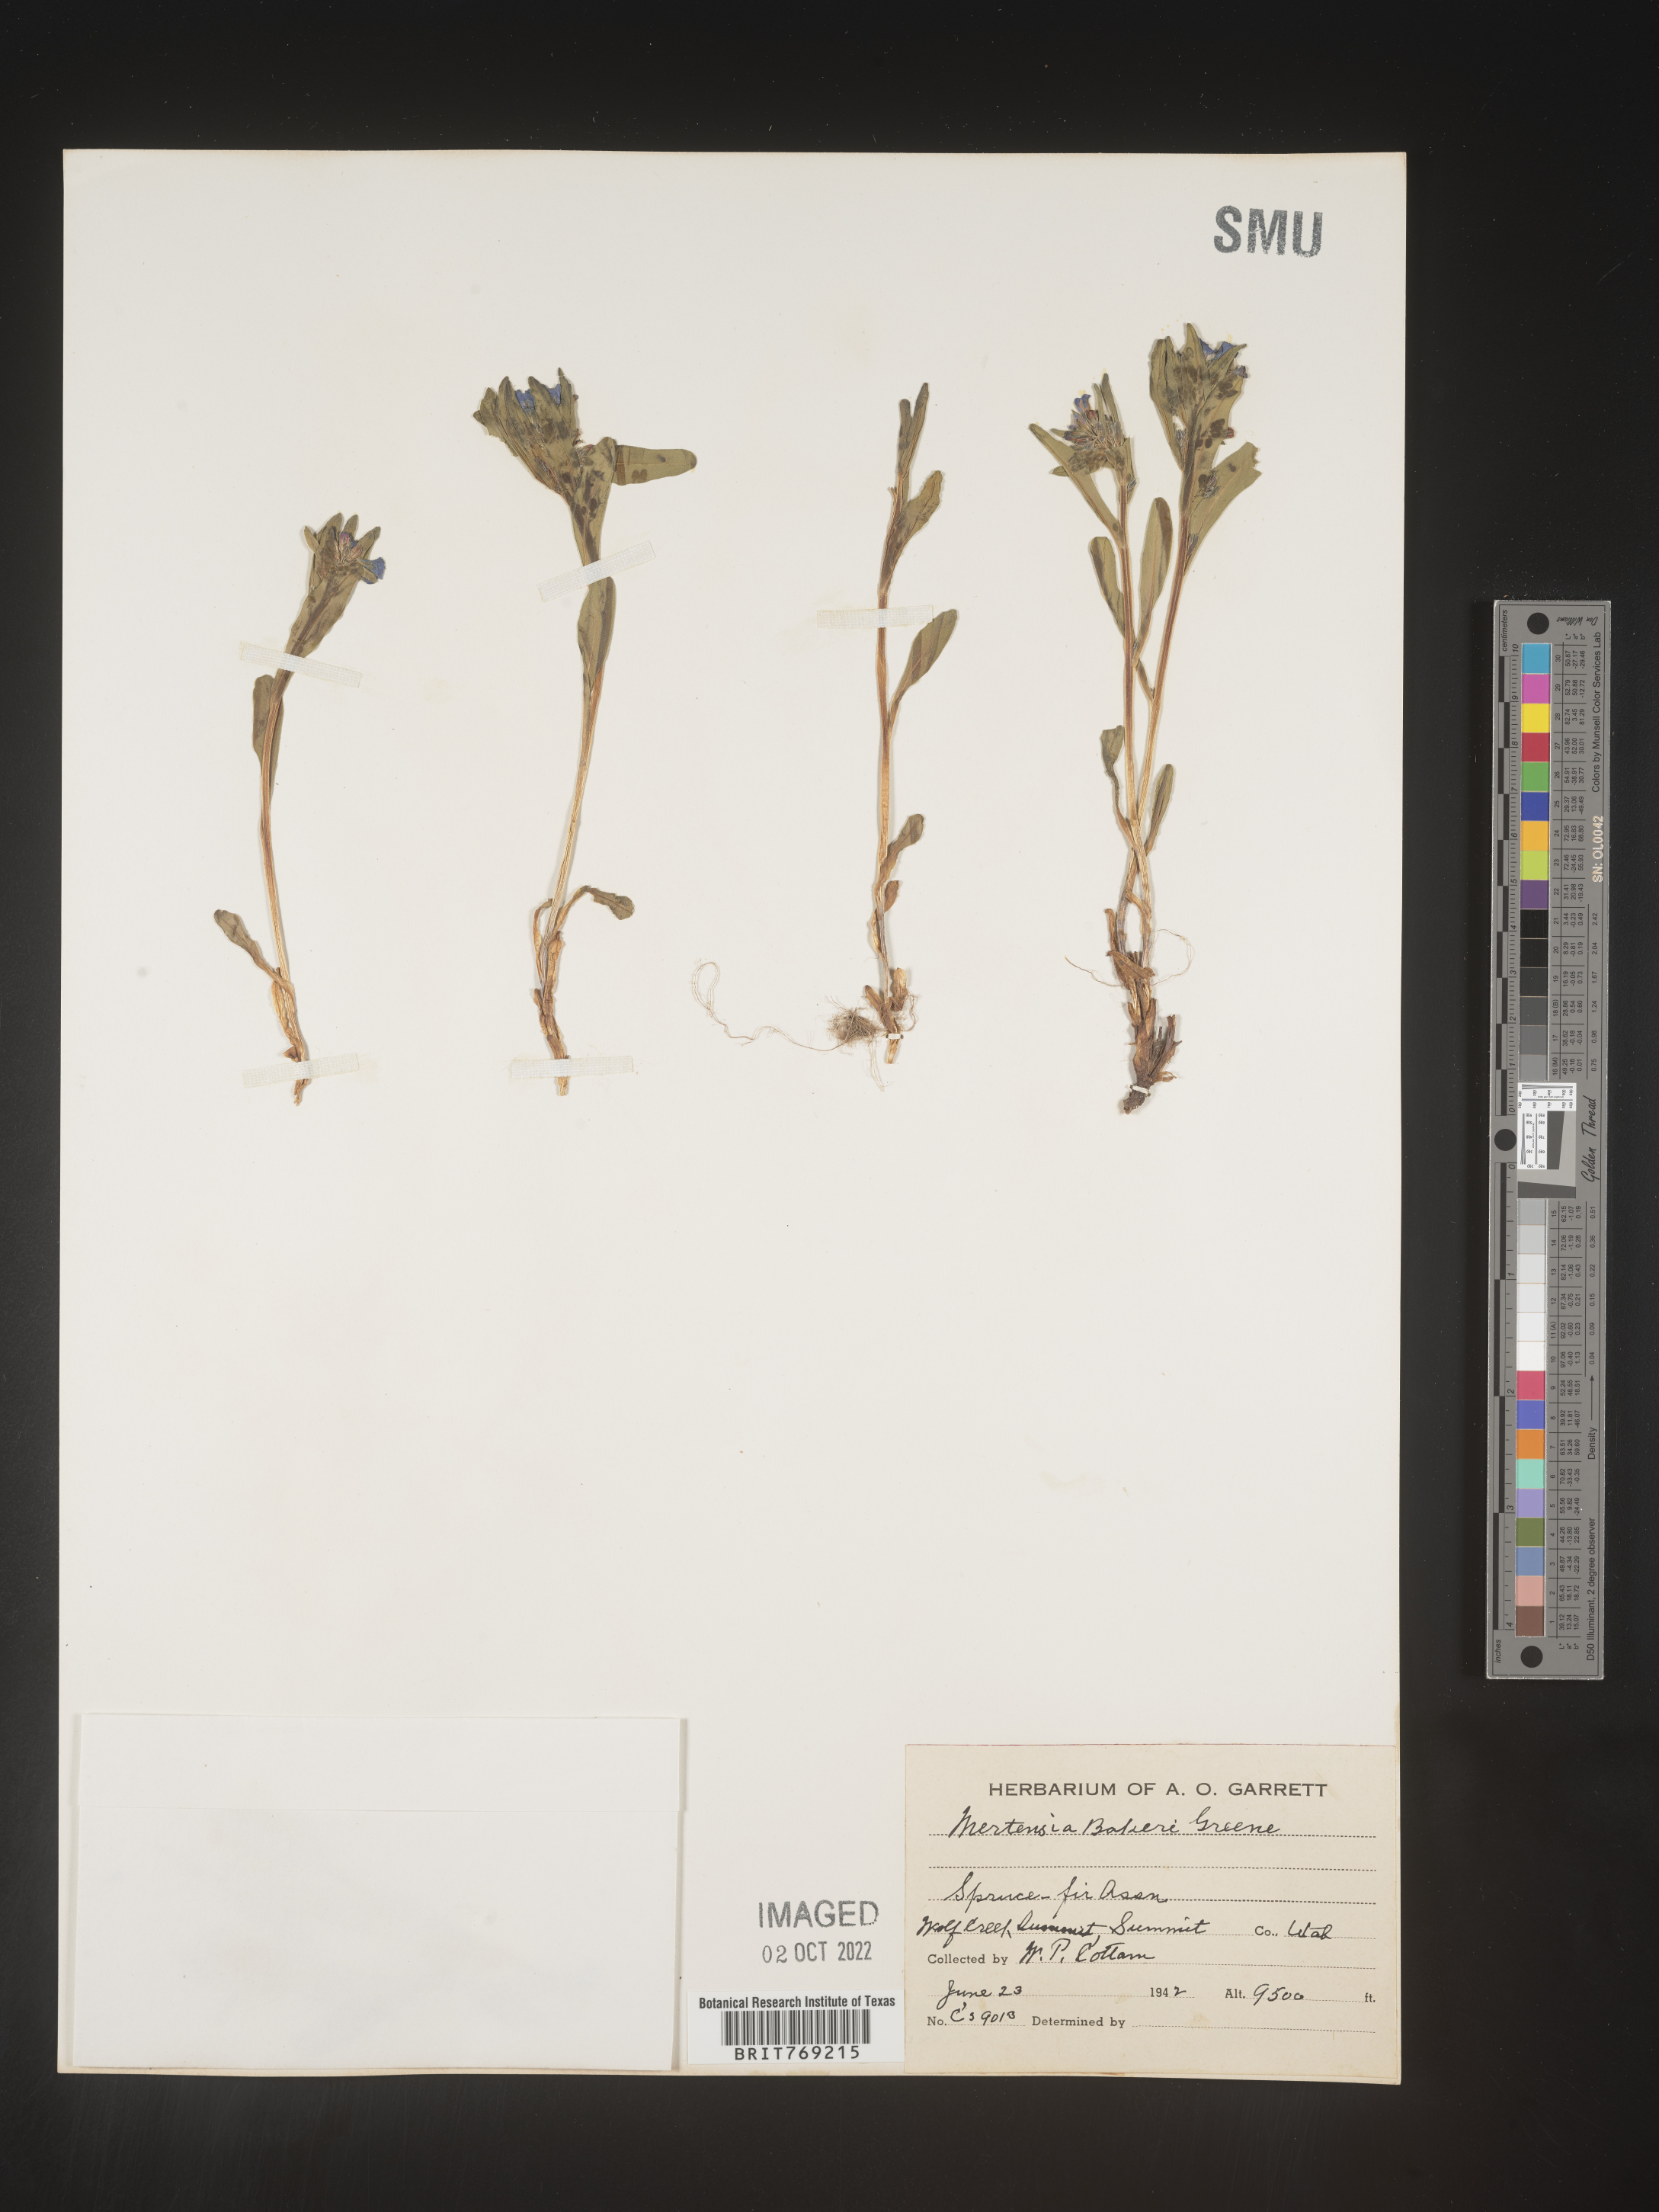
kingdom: Plantae
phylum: Tracheophyta
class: Magnoliopsida
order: Boraginales
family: Boraginaceae
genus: Mertensia
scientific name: Mertensia
